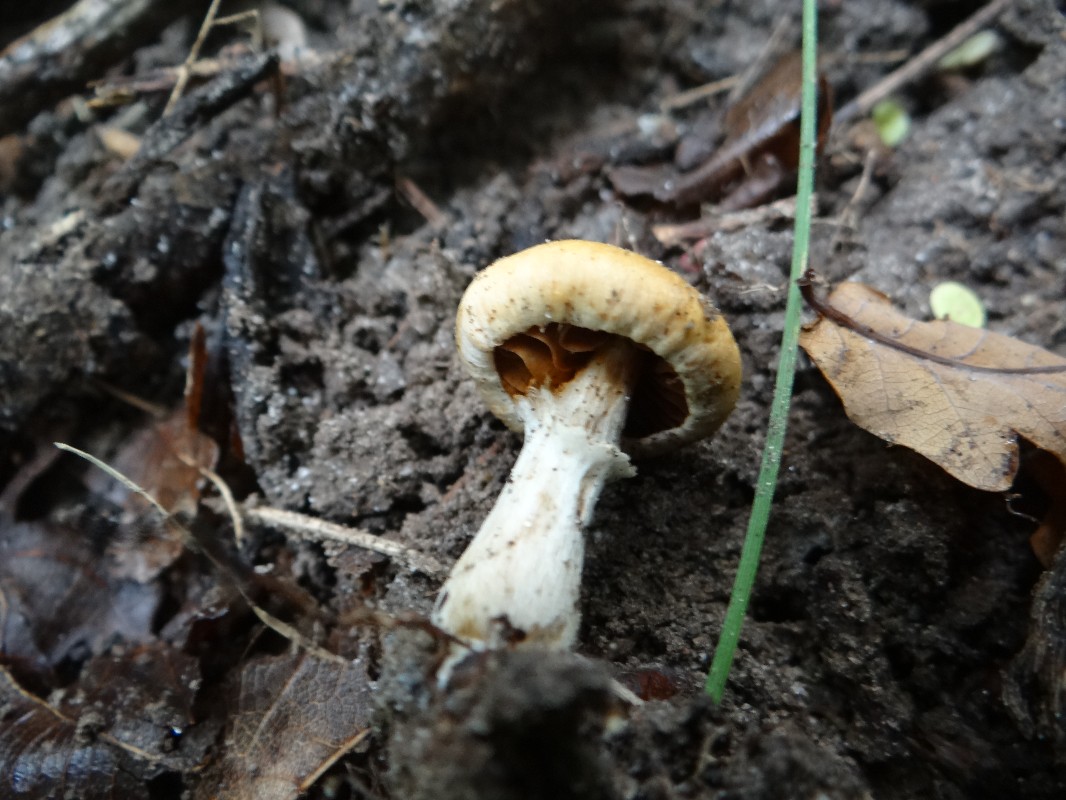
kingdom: Fungi
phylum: Basidiomycota
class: Agaricomycetes
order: Agaricales
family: Cortinariaceae
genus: Cortinarius
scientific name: Cortinarius
